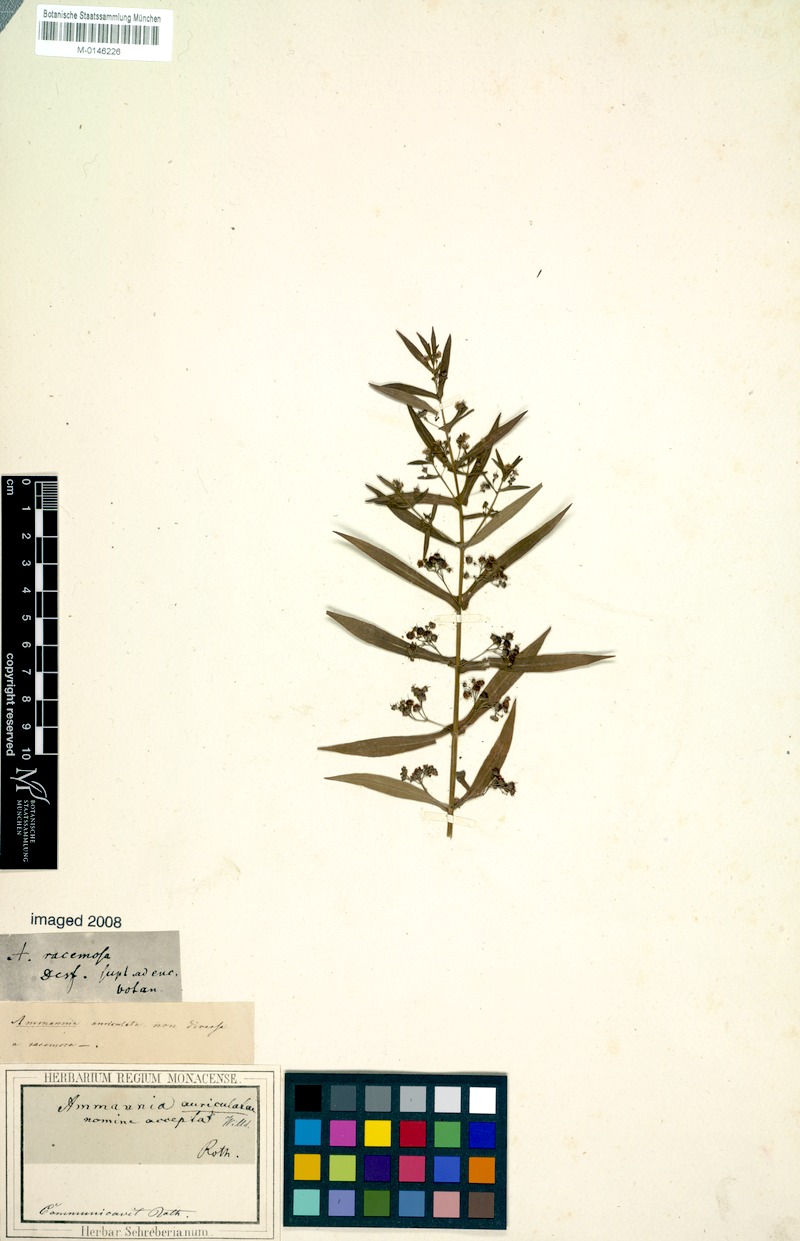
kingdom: Plantae
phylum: Tracheophyta
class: Magnoliopsida
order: Myrtales
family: Lythraceae
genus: Ammannia
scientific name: Ammannia auriculata
